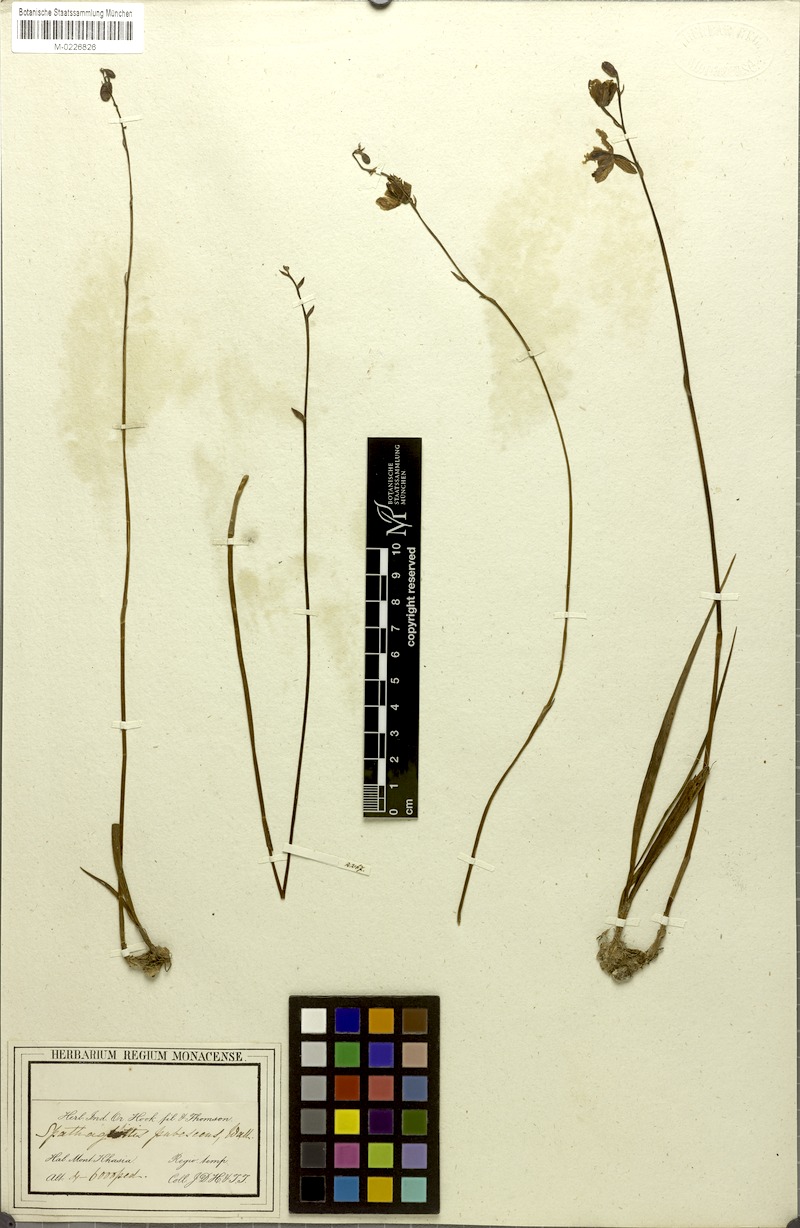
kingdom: Plantae
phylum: Tracheophyta
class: Liliopsida
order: Asparagales
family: Orchidaceae
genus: Spathoglottis
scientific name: Spathoglottis pubescens
